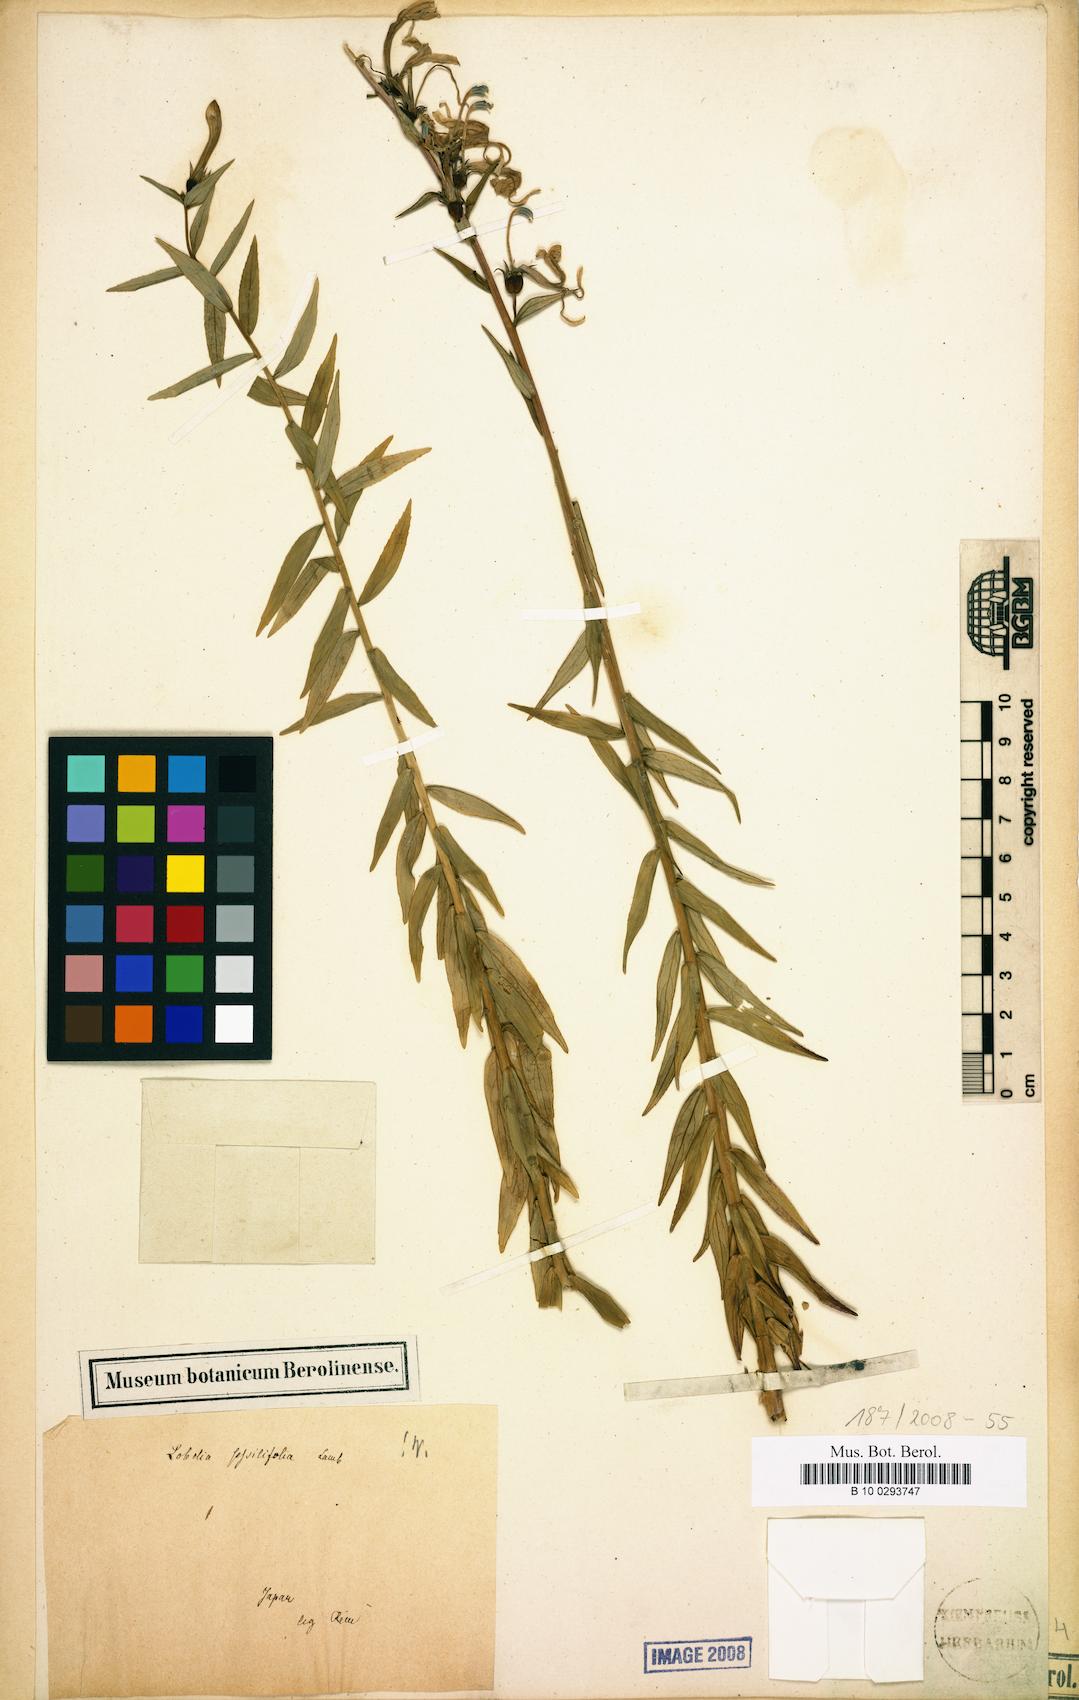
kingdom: Plantae
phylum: Tracheophyta
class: Magnoliopsida
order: Asterales
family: Campanulaceae
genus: Lobelia
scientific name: Lobelia sessilifolia
